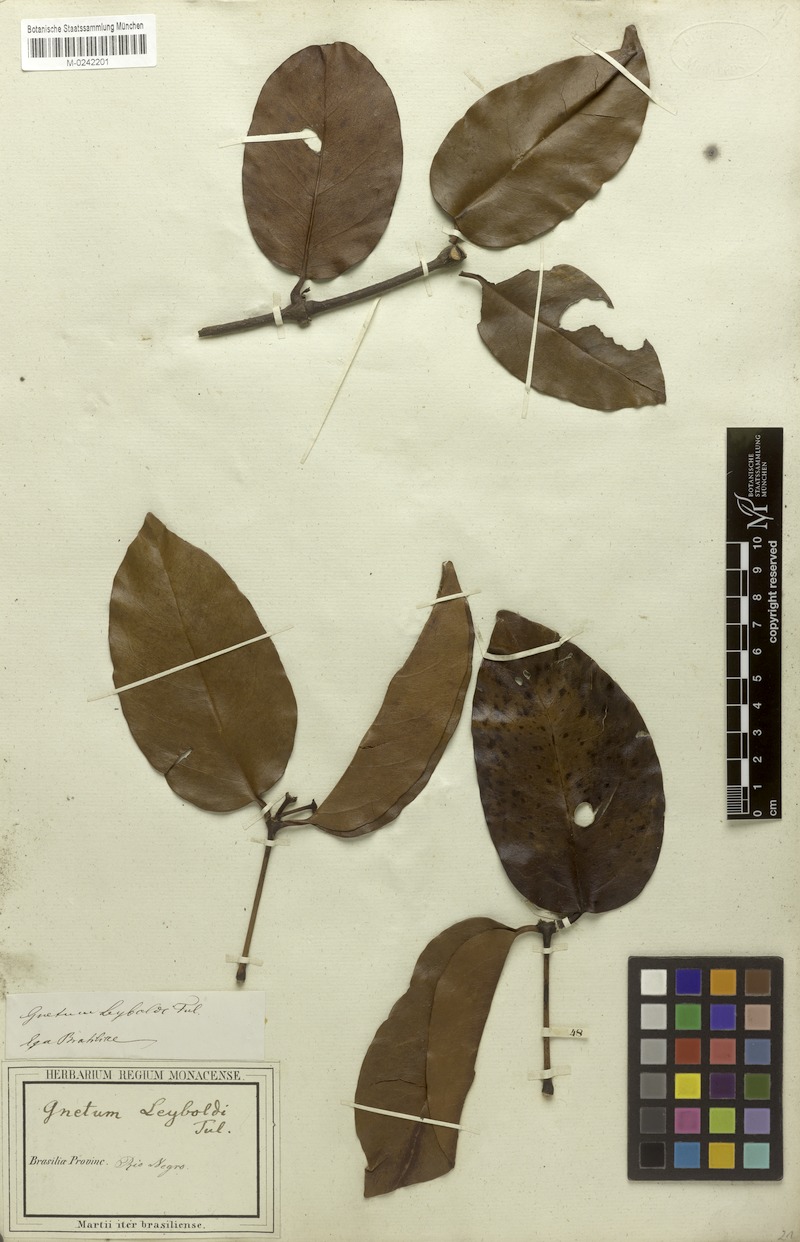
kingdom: Plantae
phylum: Tracheophyta
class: Gnetopsida
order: Gnetales
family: Gnetaceae
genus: Gnetum
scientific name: Gnetum leyboldii
